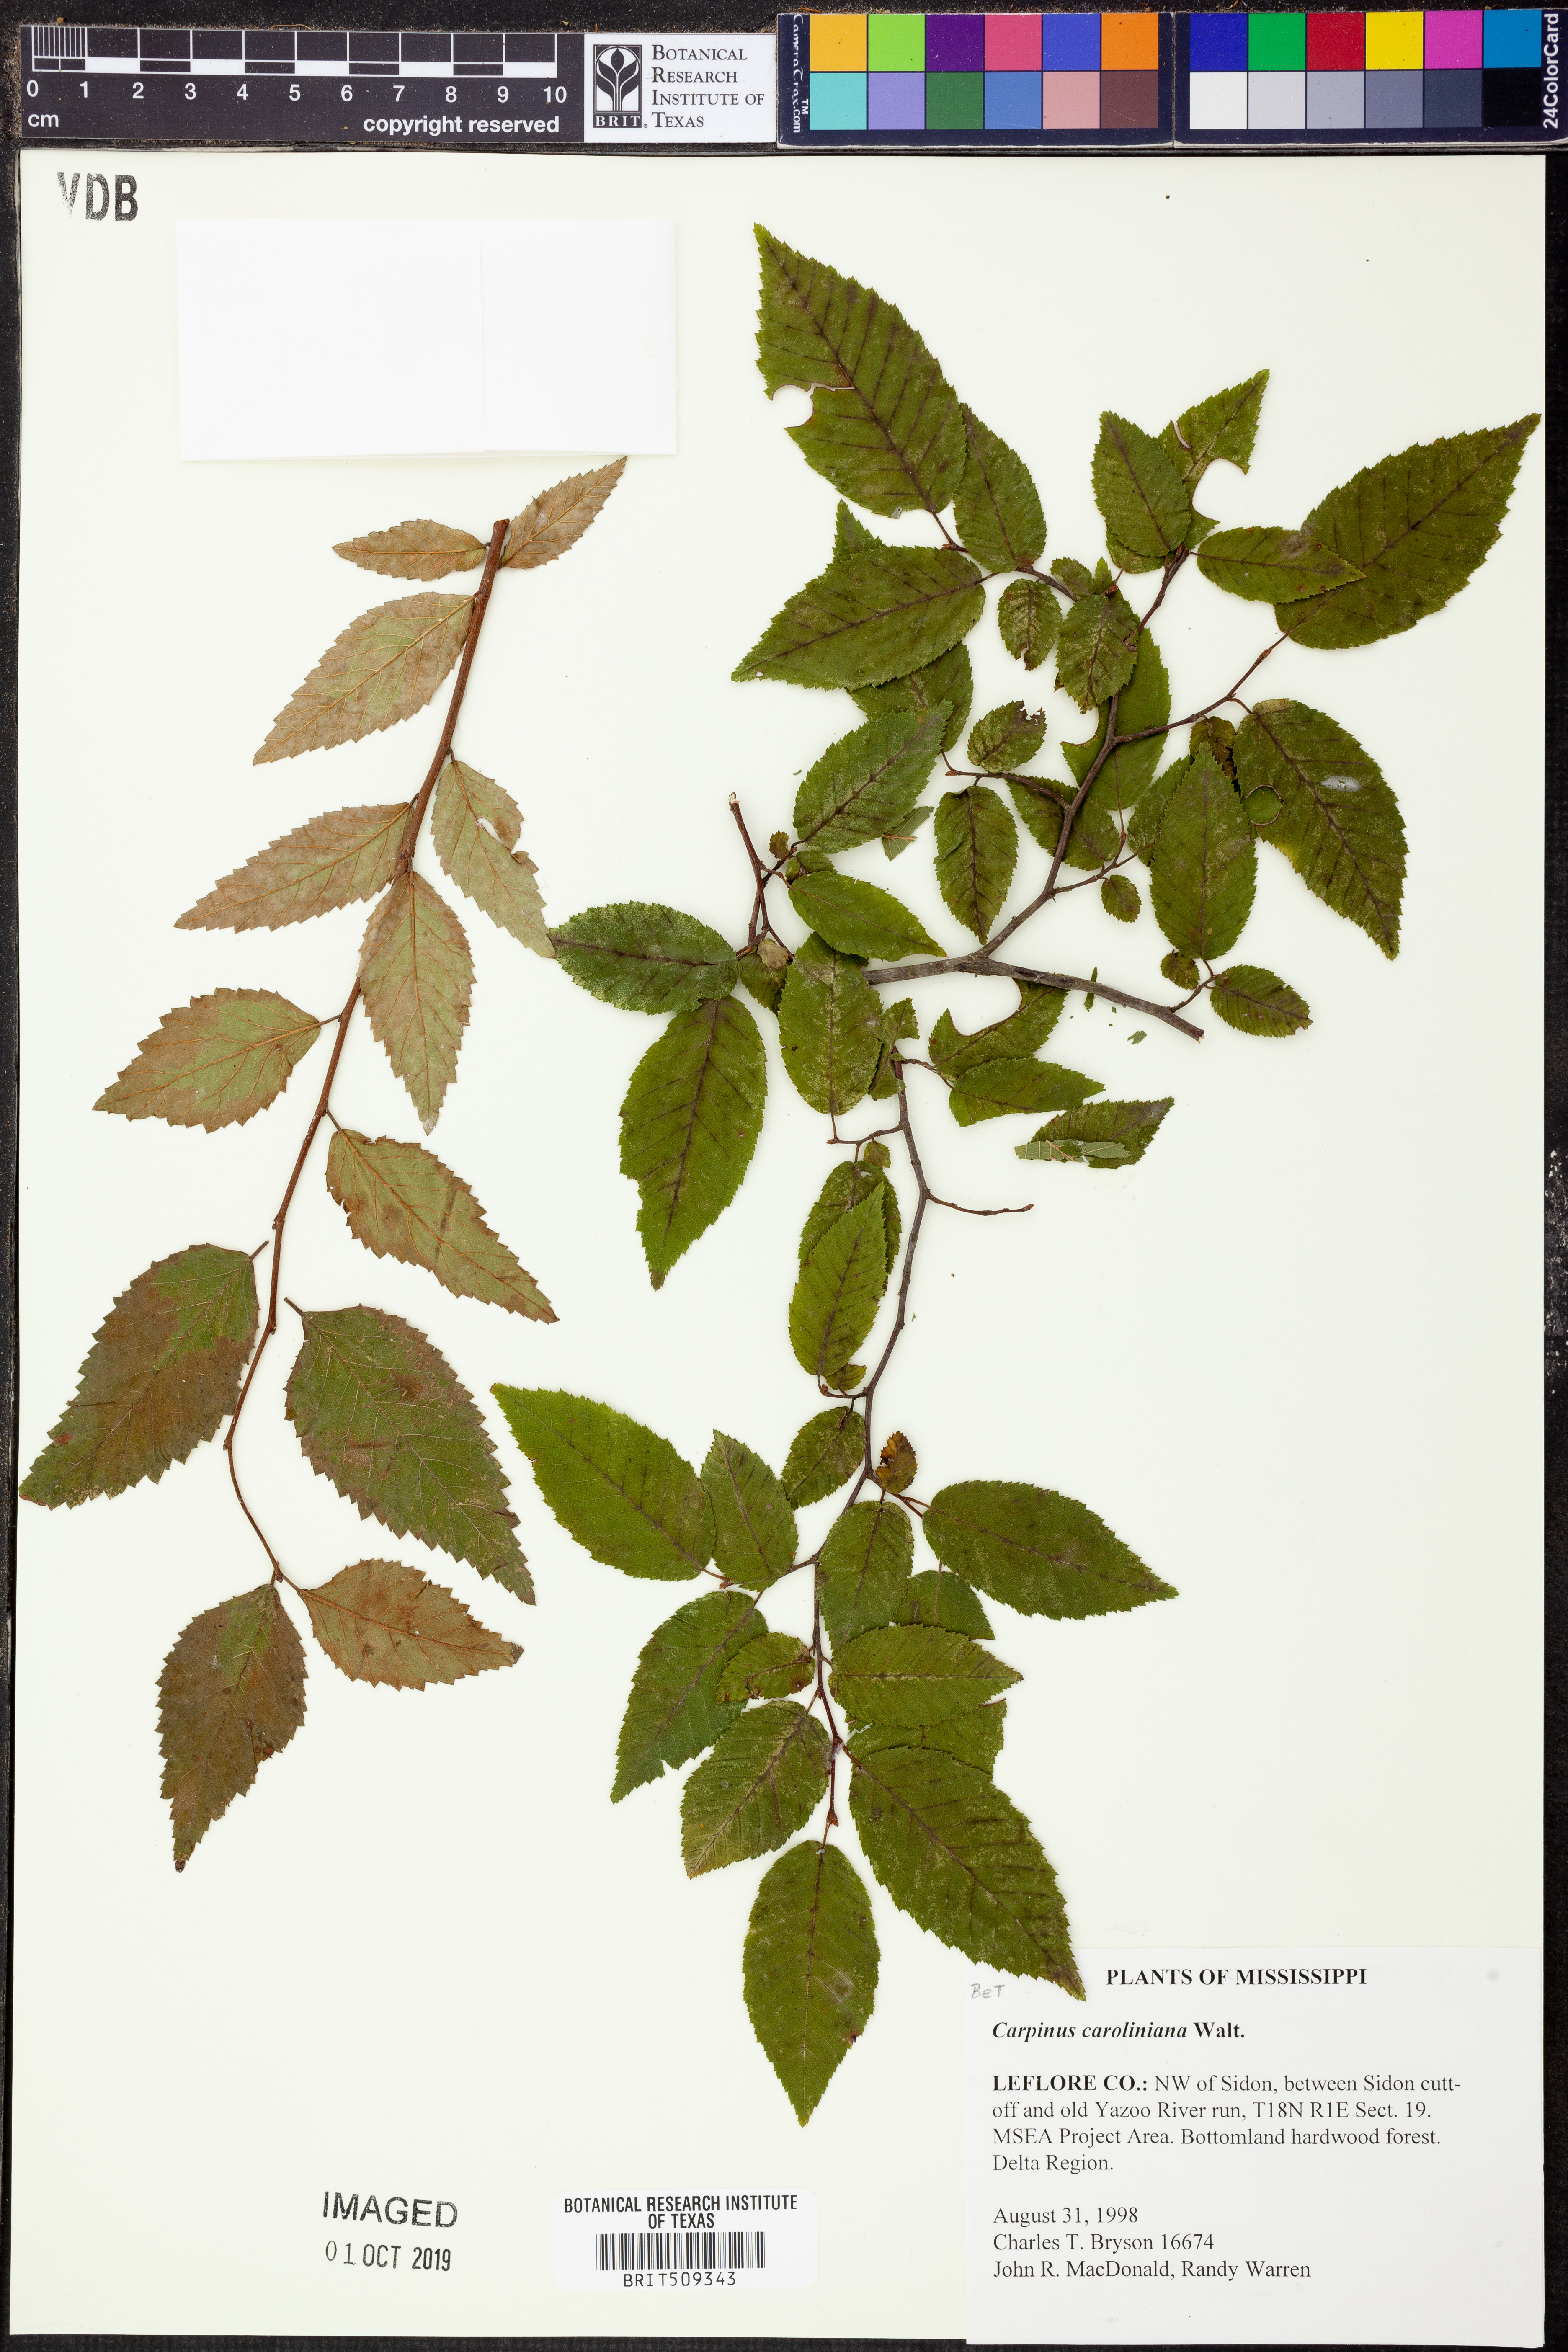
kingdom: Plantae
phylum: Tracheophyta
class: Magnoliopsida
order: Fagales
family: Betulaceae
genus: Carpinus
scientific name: Carpinus caroliniana
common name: American hornbeam
